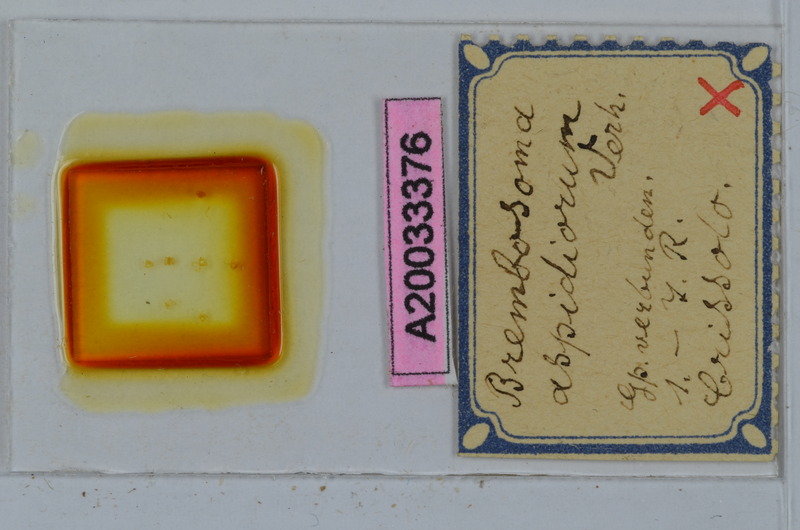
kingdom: Animalia
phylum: Arthropoda
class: Diplopoda
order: Polydesmida
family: Polydesmidae
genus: Brembosoma
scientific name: Brembosoma aspidiorum
